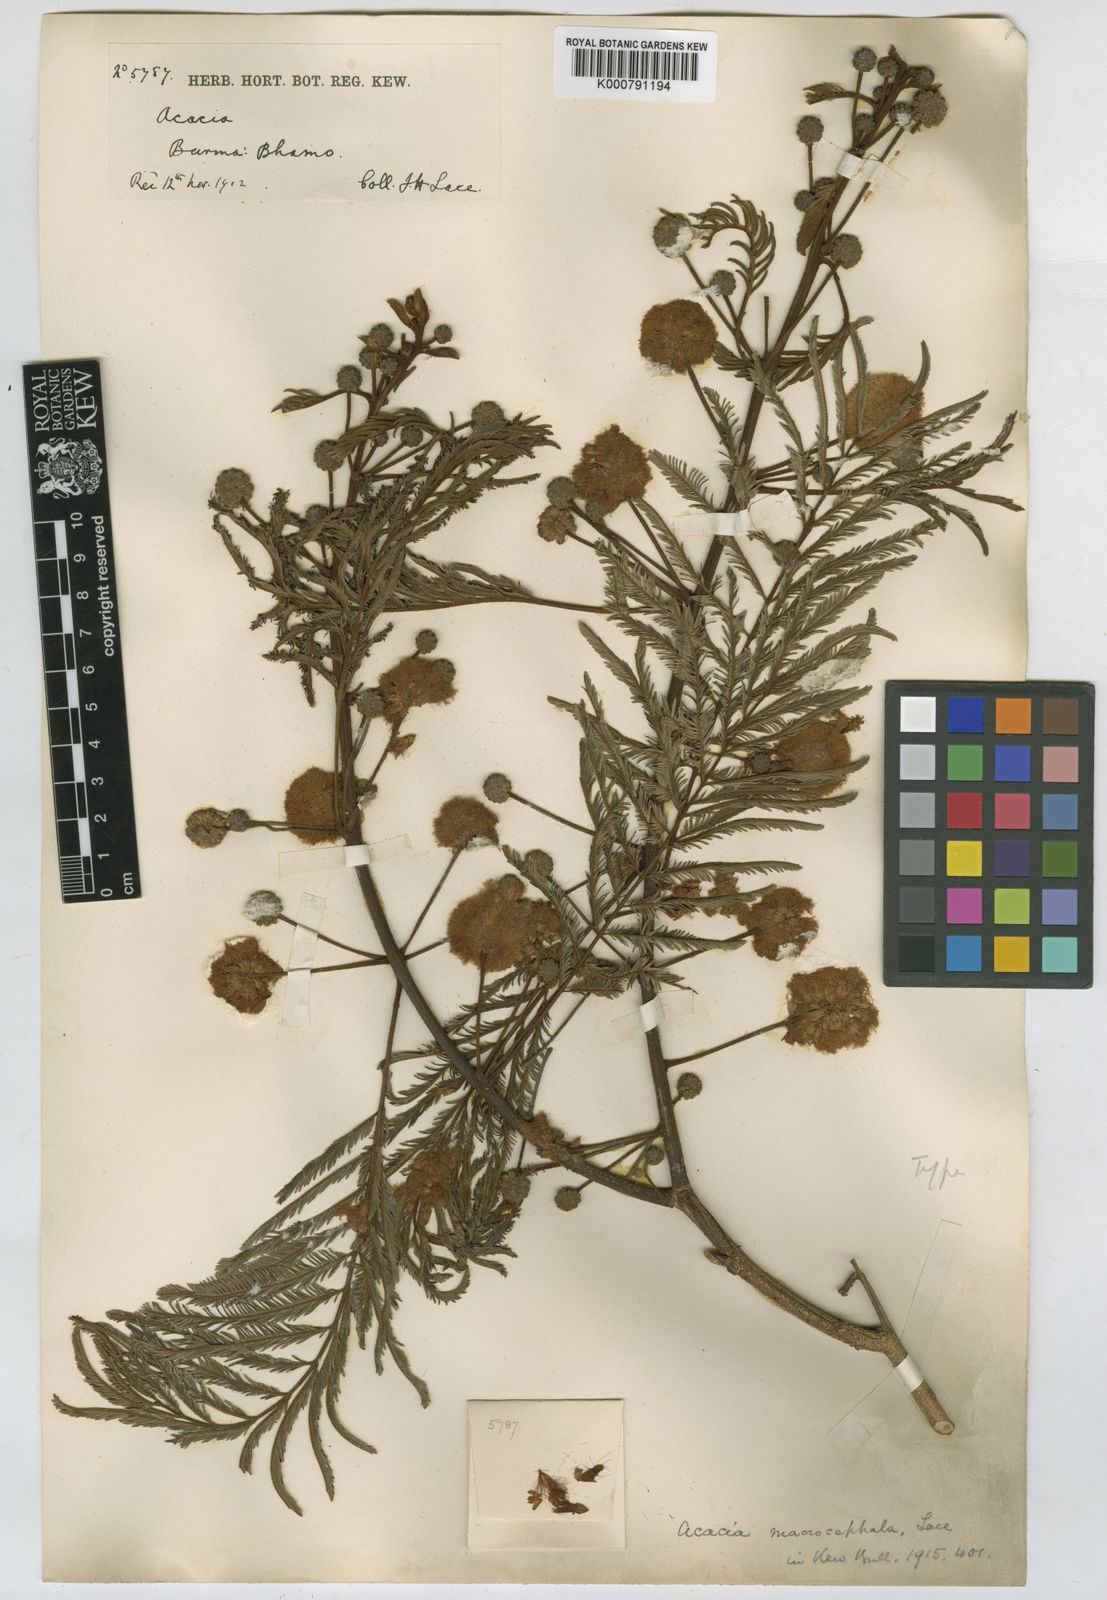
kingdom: Plantae
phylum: Tracheophyta
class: Magnoliopsida
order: Fabales
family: Fabaceae
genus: Senegalia
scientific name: Senegalia macrocephala
